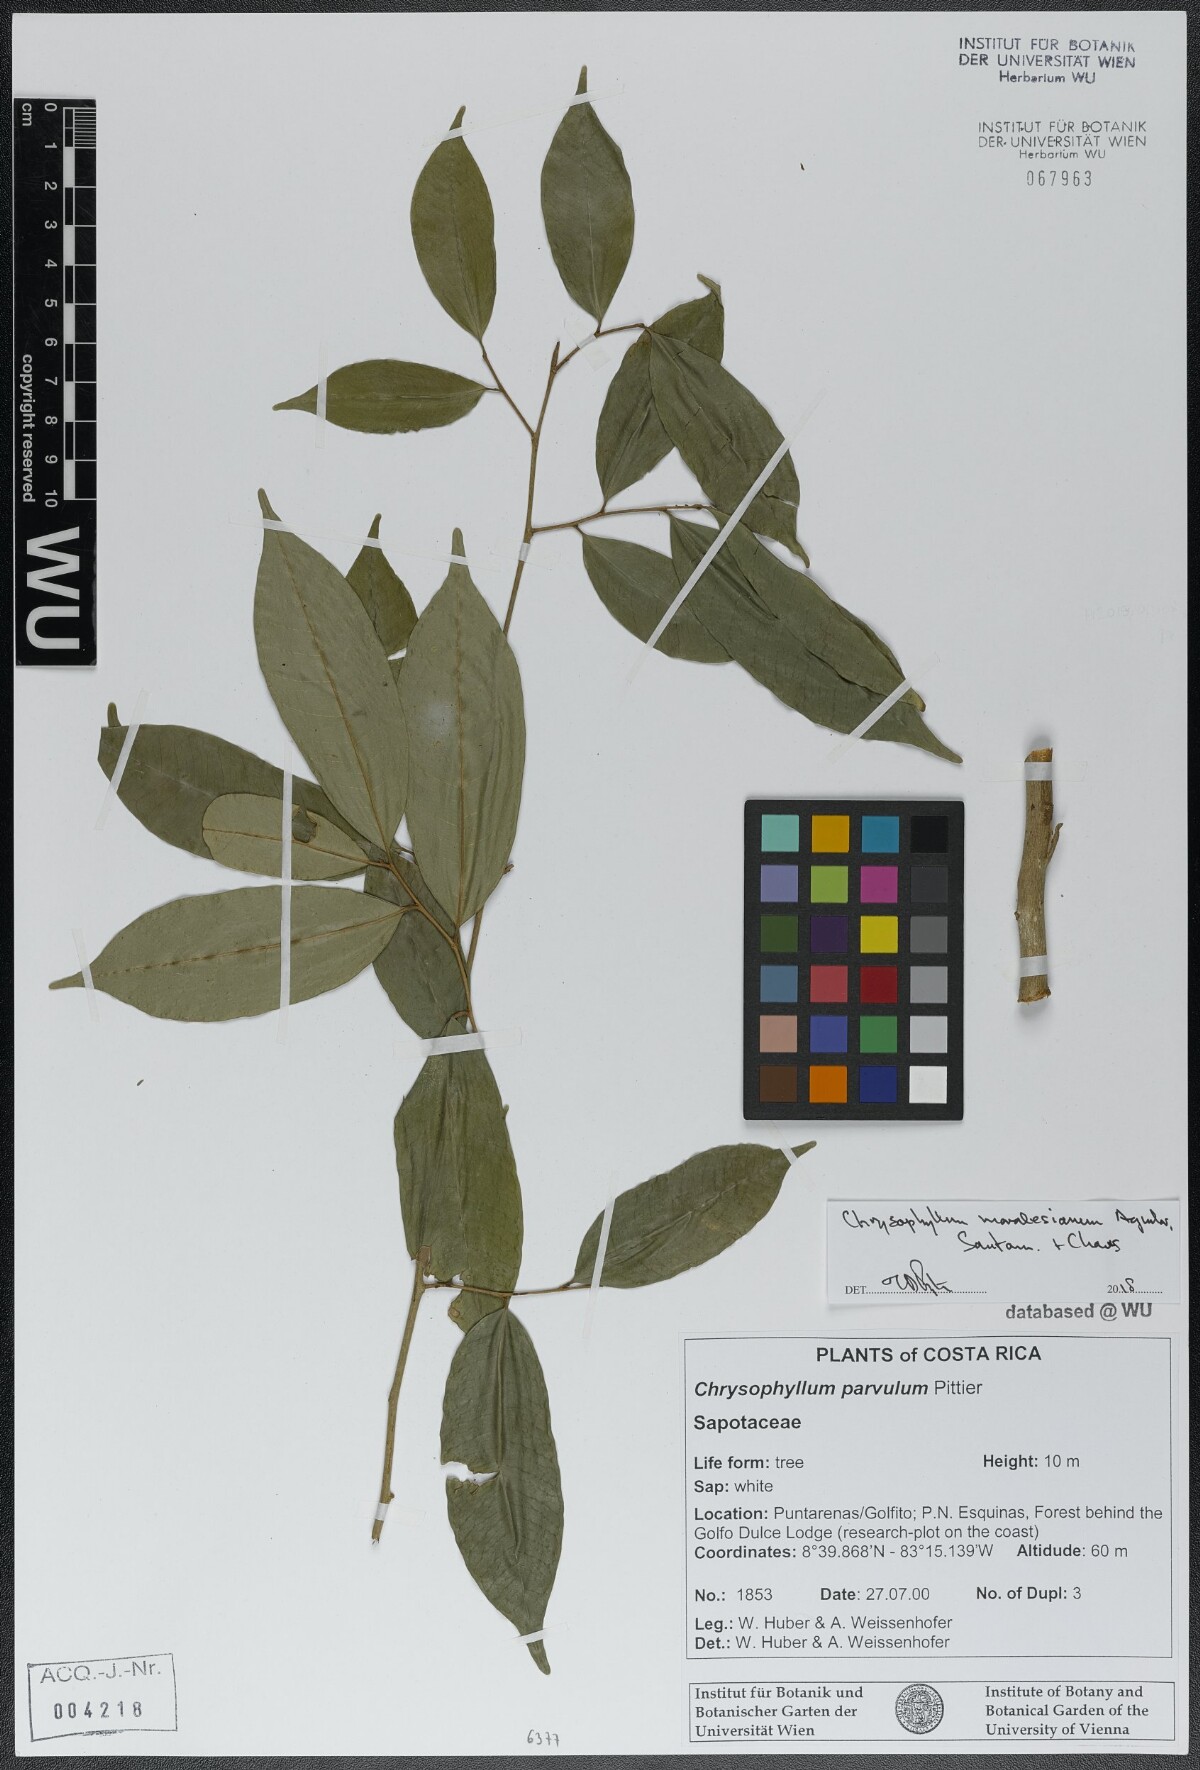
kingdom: Plantae
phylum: Tracheophyta
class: Magnoliopsida
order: Ericales
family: Sapotaceae
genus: Chrysophyllum
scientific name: Chrysophyllum moralesianum
